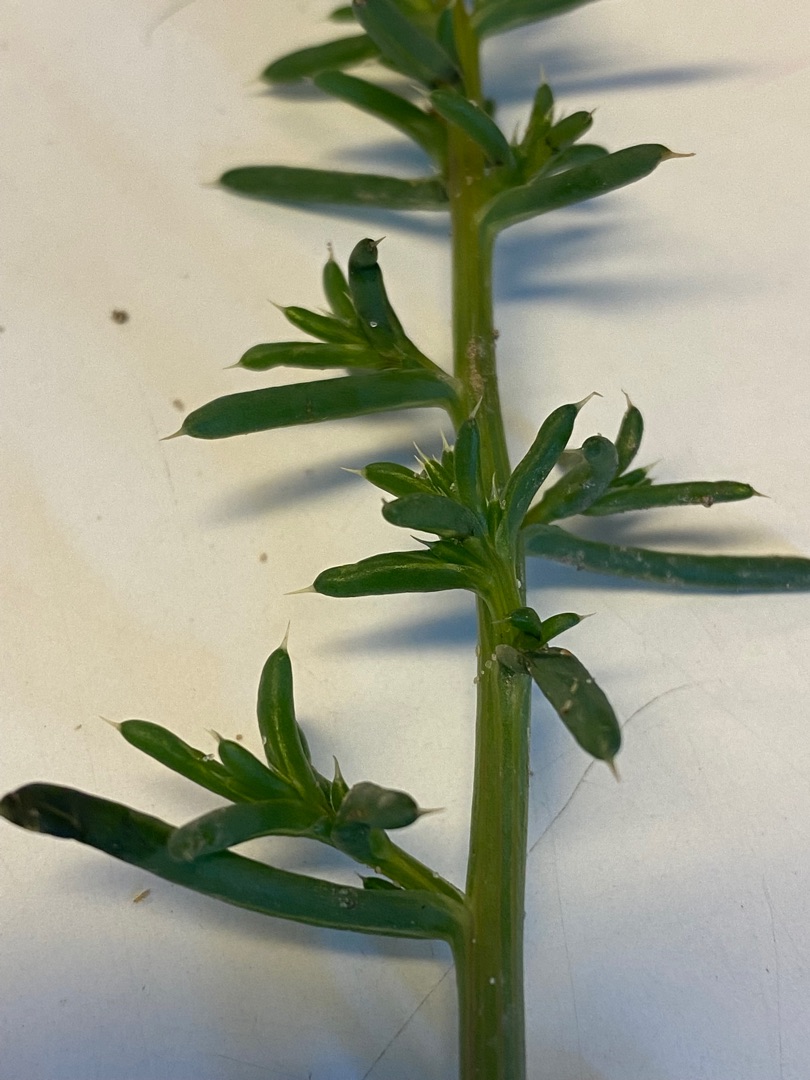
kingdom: Plantae
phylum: Tracheophyta
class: Magnoliopsida
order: Caryophyllales
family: Amaranthaceae
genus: Salsola
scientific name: Salsola kali
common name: Sodaurt
